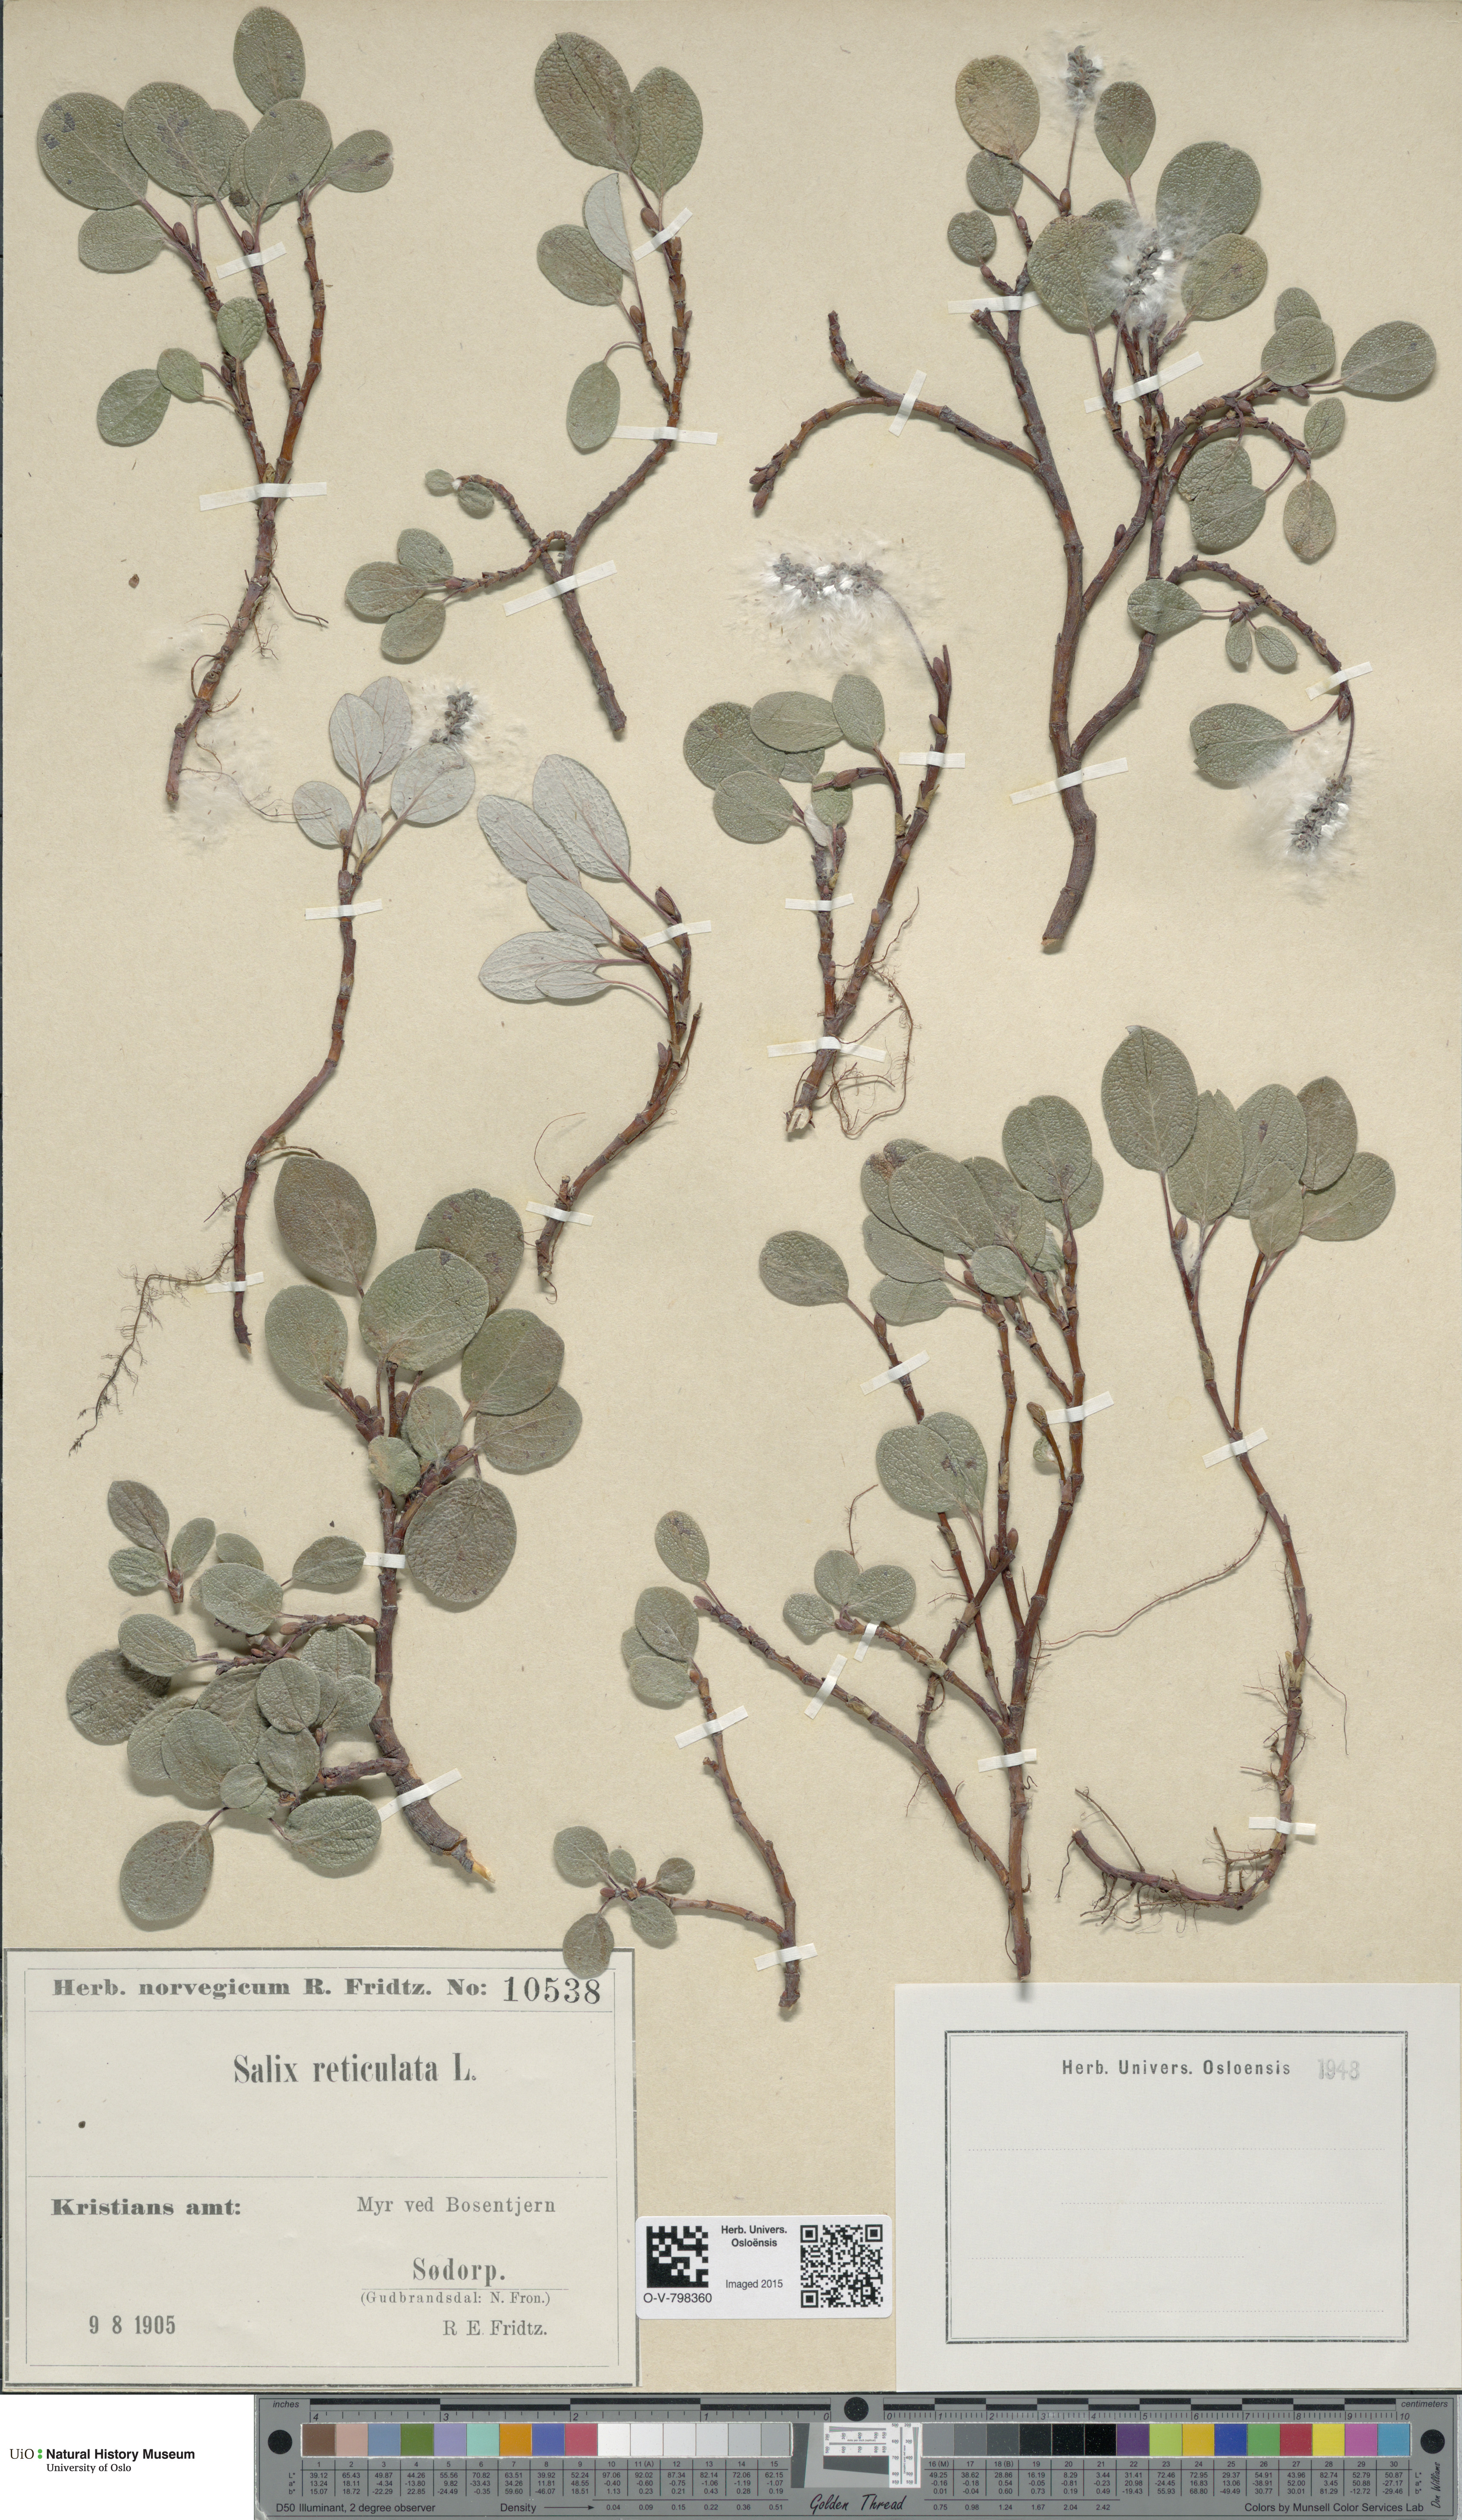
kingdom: Plantae
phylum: Tracheophyta
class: Magnoliopsida
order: Malpighiales
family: Salicaceae
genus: Salix
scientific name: Salix reticulata
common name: Net-leaved willow
